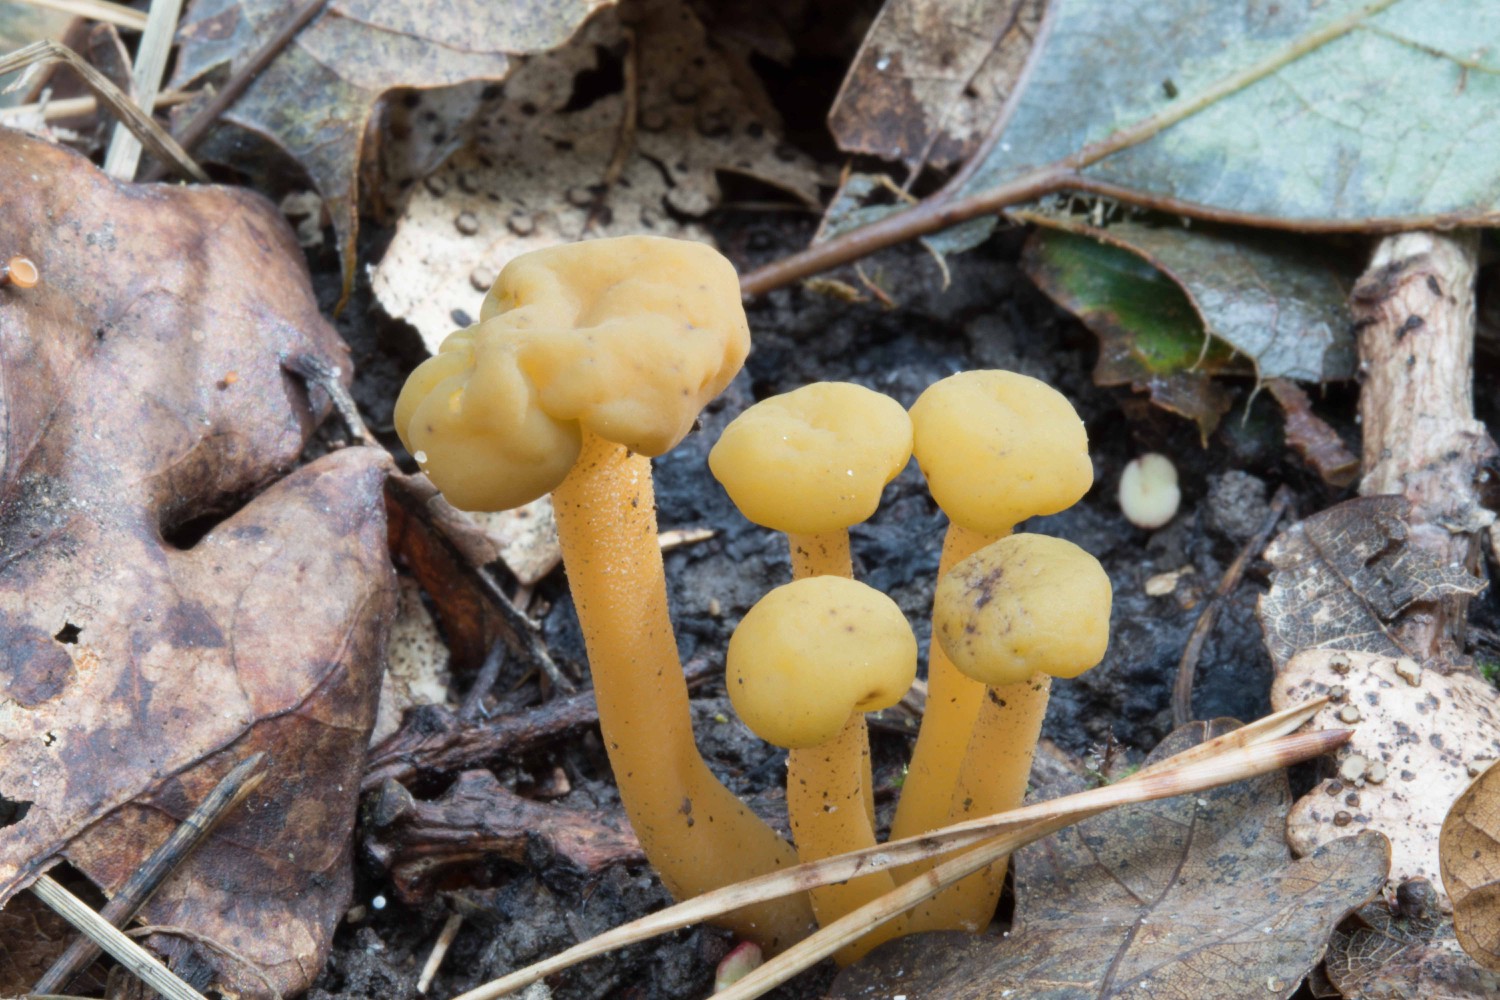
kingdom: Fungi
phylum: Ascomycota
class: Leotiomycetes
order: Leotiales
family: Leotiaceae
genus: Leotia
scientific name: Leotia lubrica
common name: ravsvamp
